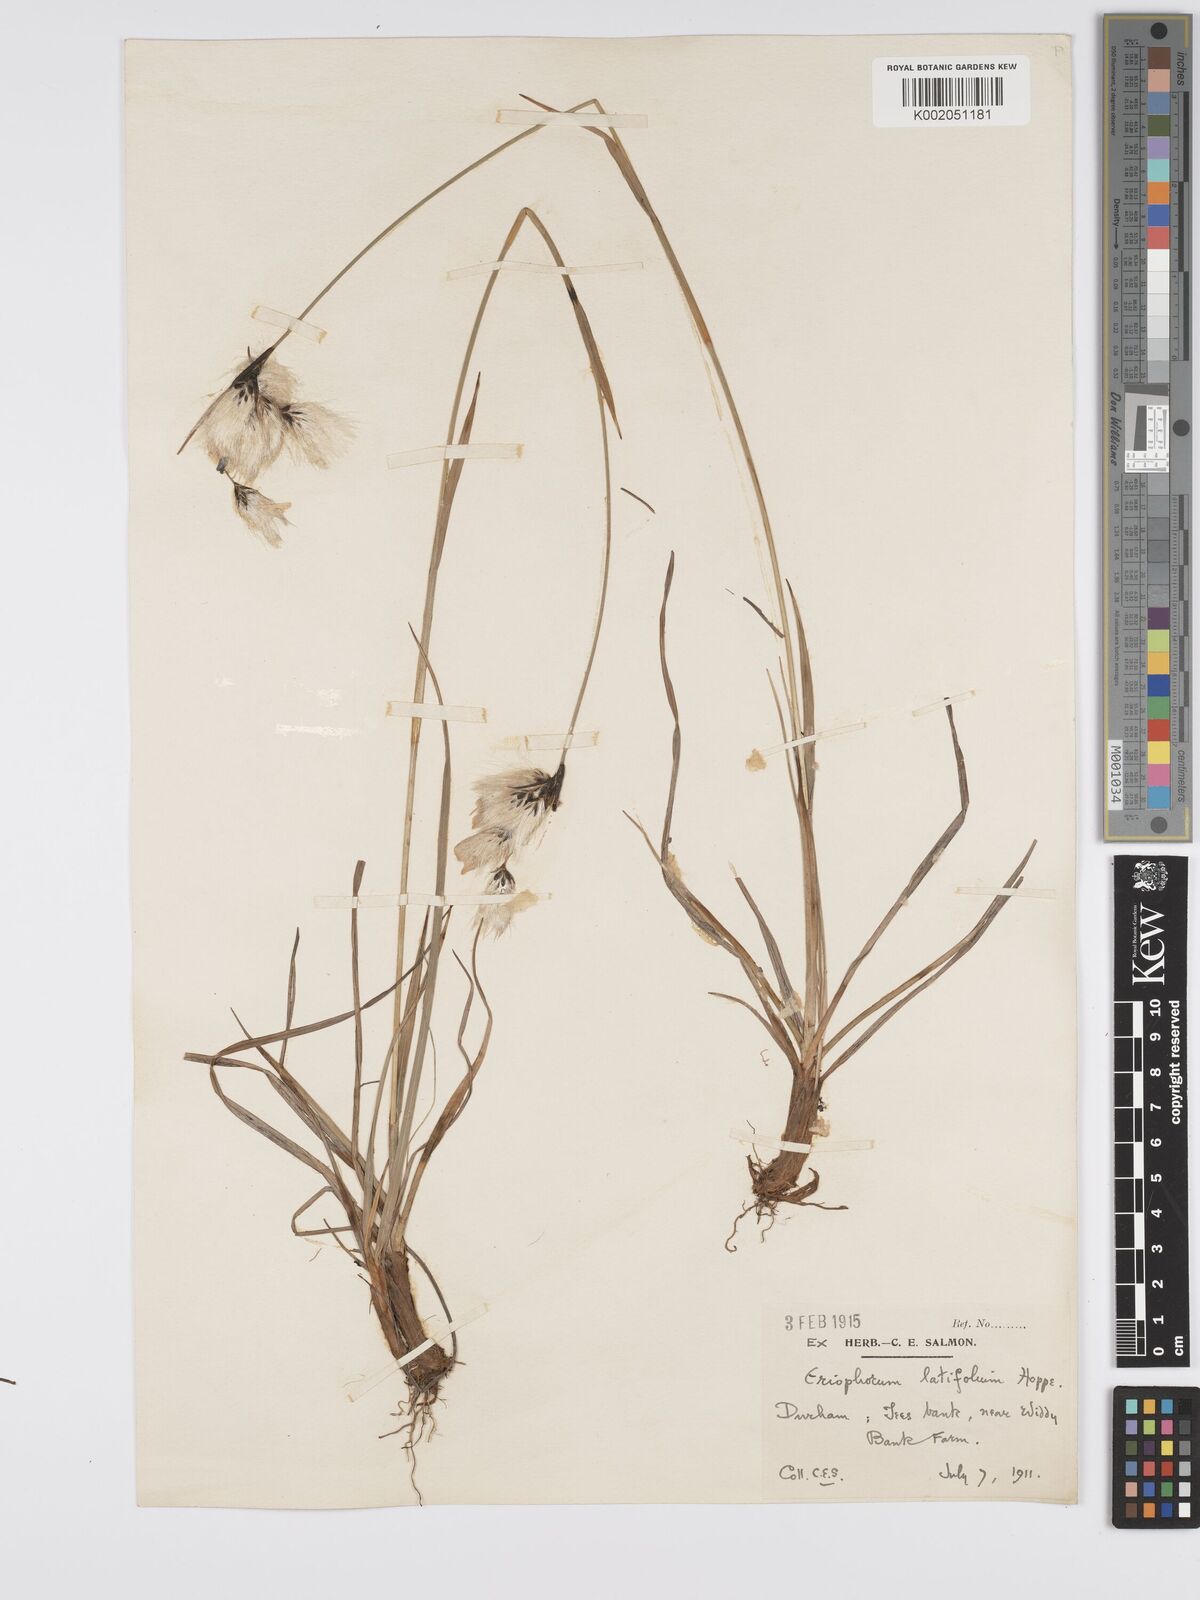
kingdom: Plantae
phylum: Tracheophyta
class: Liliopsida
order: Poales
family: Cyperaceae
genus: Eriophorum
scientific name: Eriophorum latifolium
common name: Broad-leaved cottongrass
